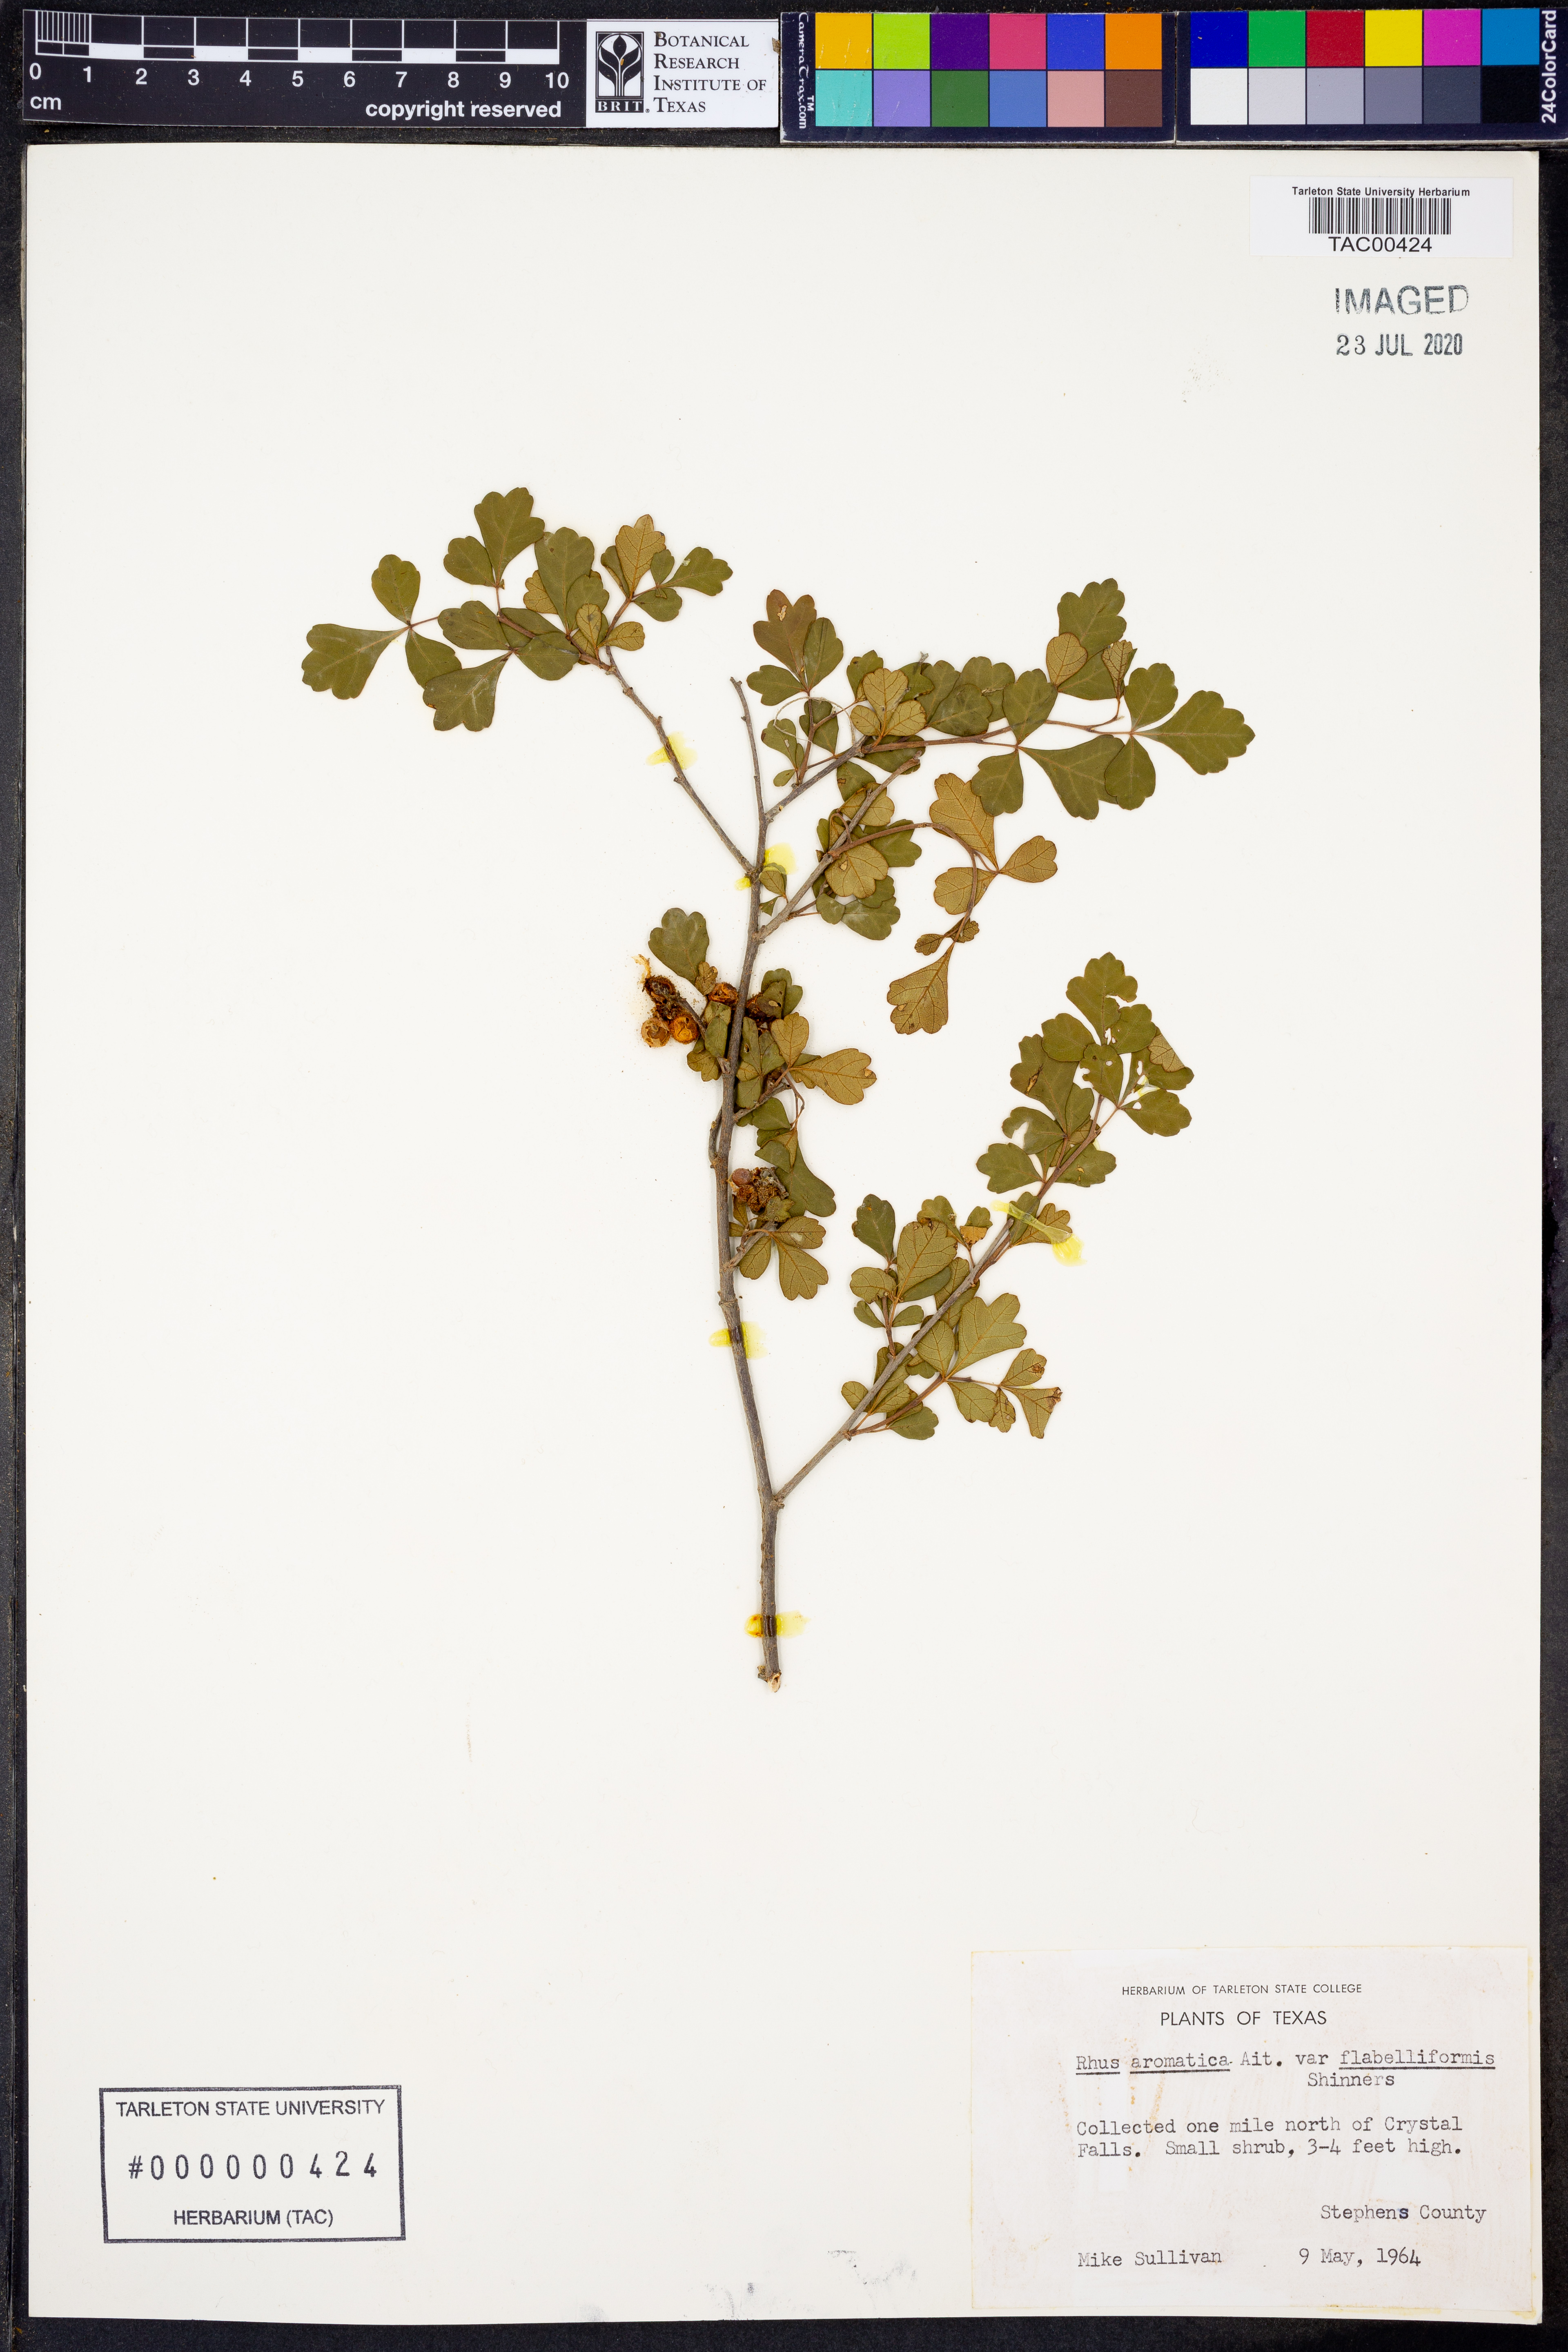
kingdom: Plantae
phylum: Tracheophyta
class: Magnoliopsida
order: Sapindales
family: Anacardiaceae
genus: Rhus
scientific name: Rhus trilobata
